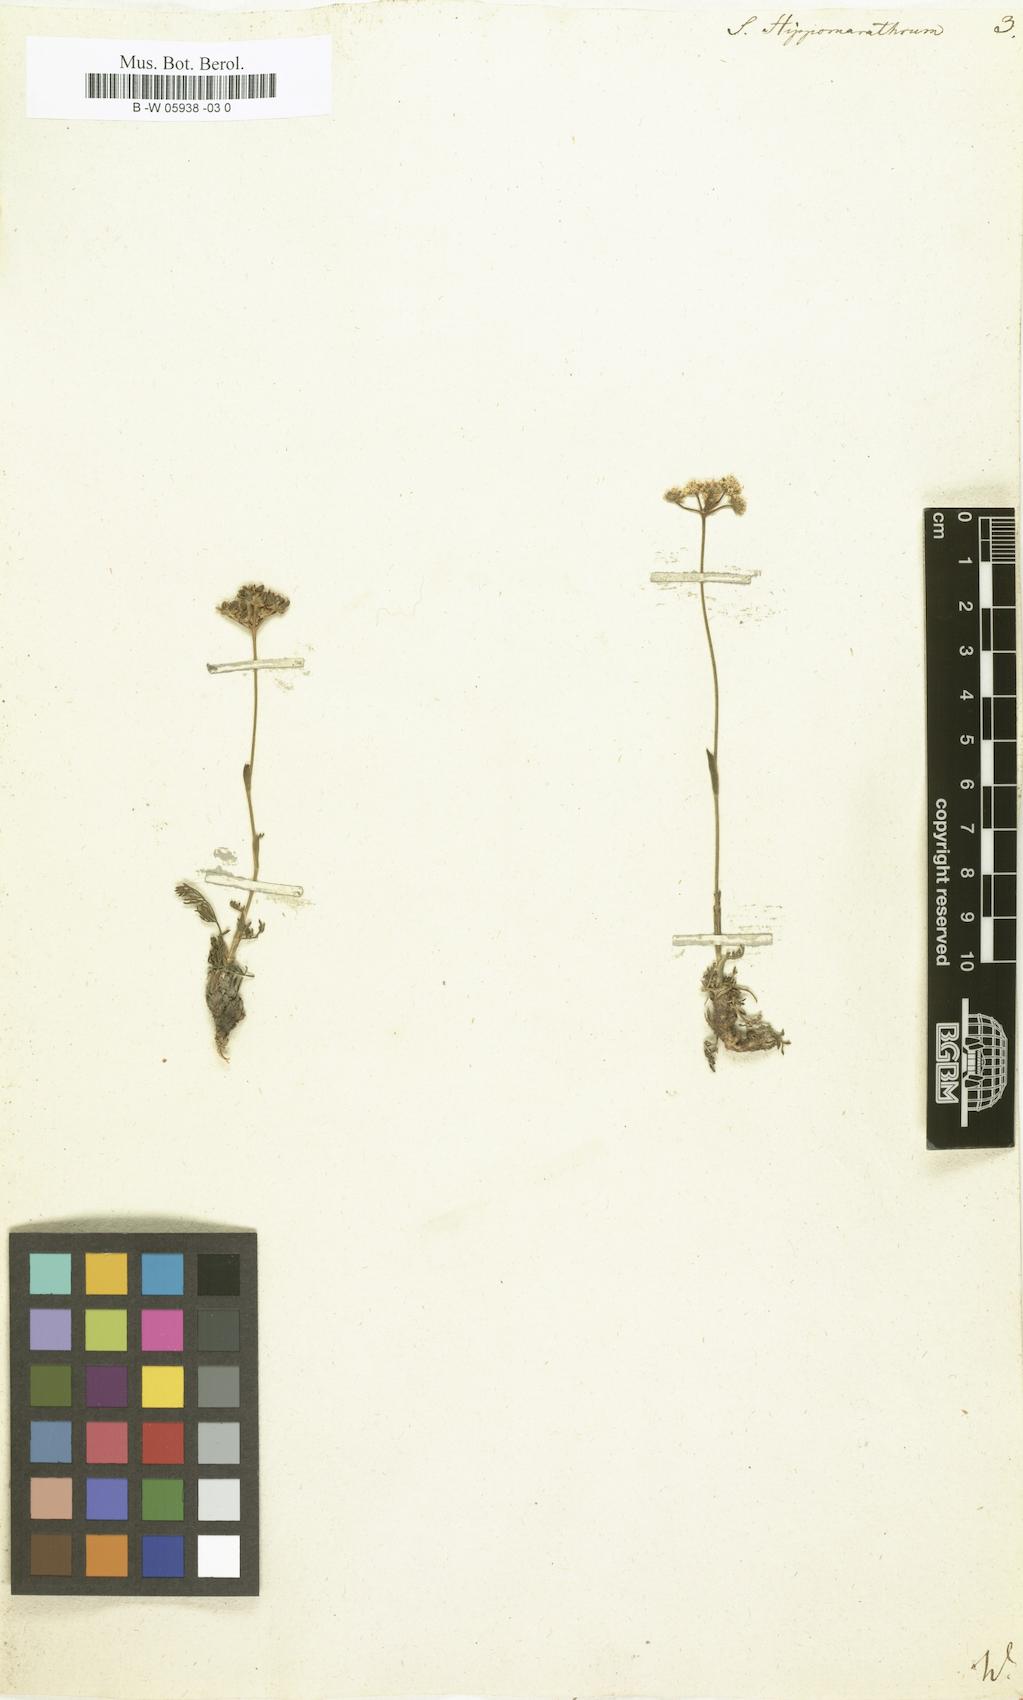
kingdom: Plantae
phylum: Tracheophyta
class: Magnoliopsida
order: Apiales
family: Apiaceae
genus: Hippomarathrum
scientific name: Hippomarathrum vulgare
